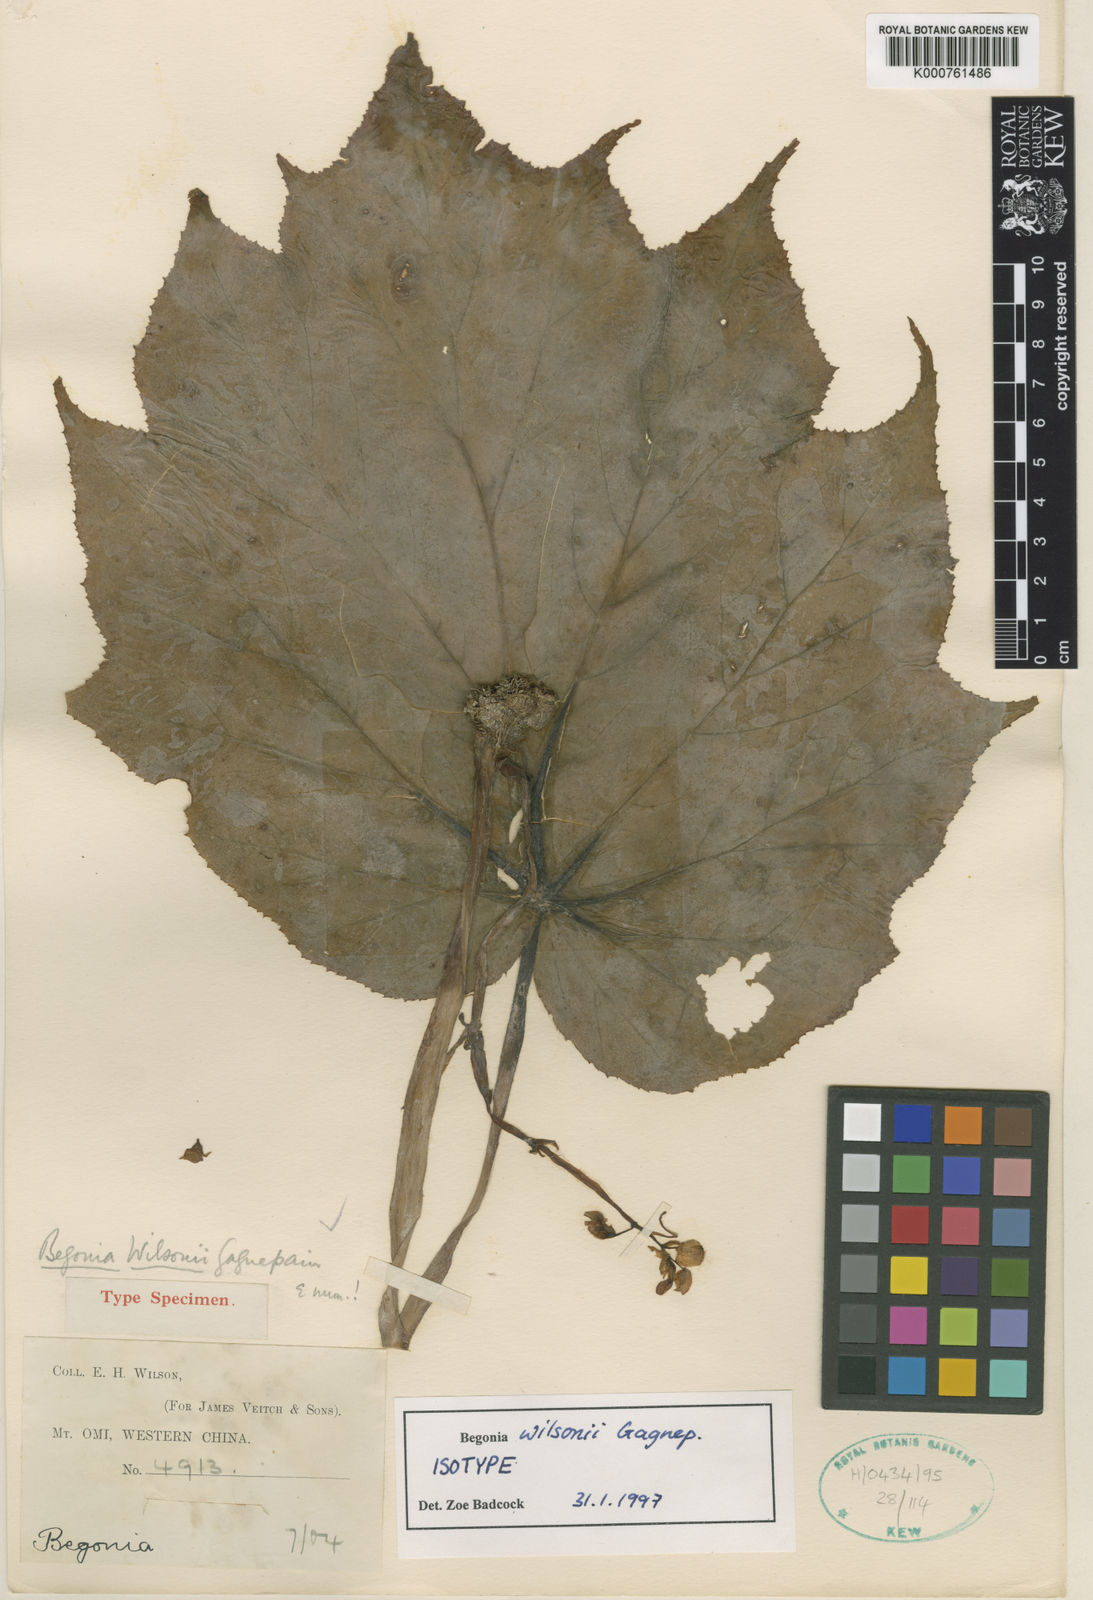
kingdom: Plantae
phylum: Tracheophyta
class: Magnoliopsida
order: Cucurbitales
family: Begoniaceae
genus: Begonia
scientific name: Begonia wilsonii
